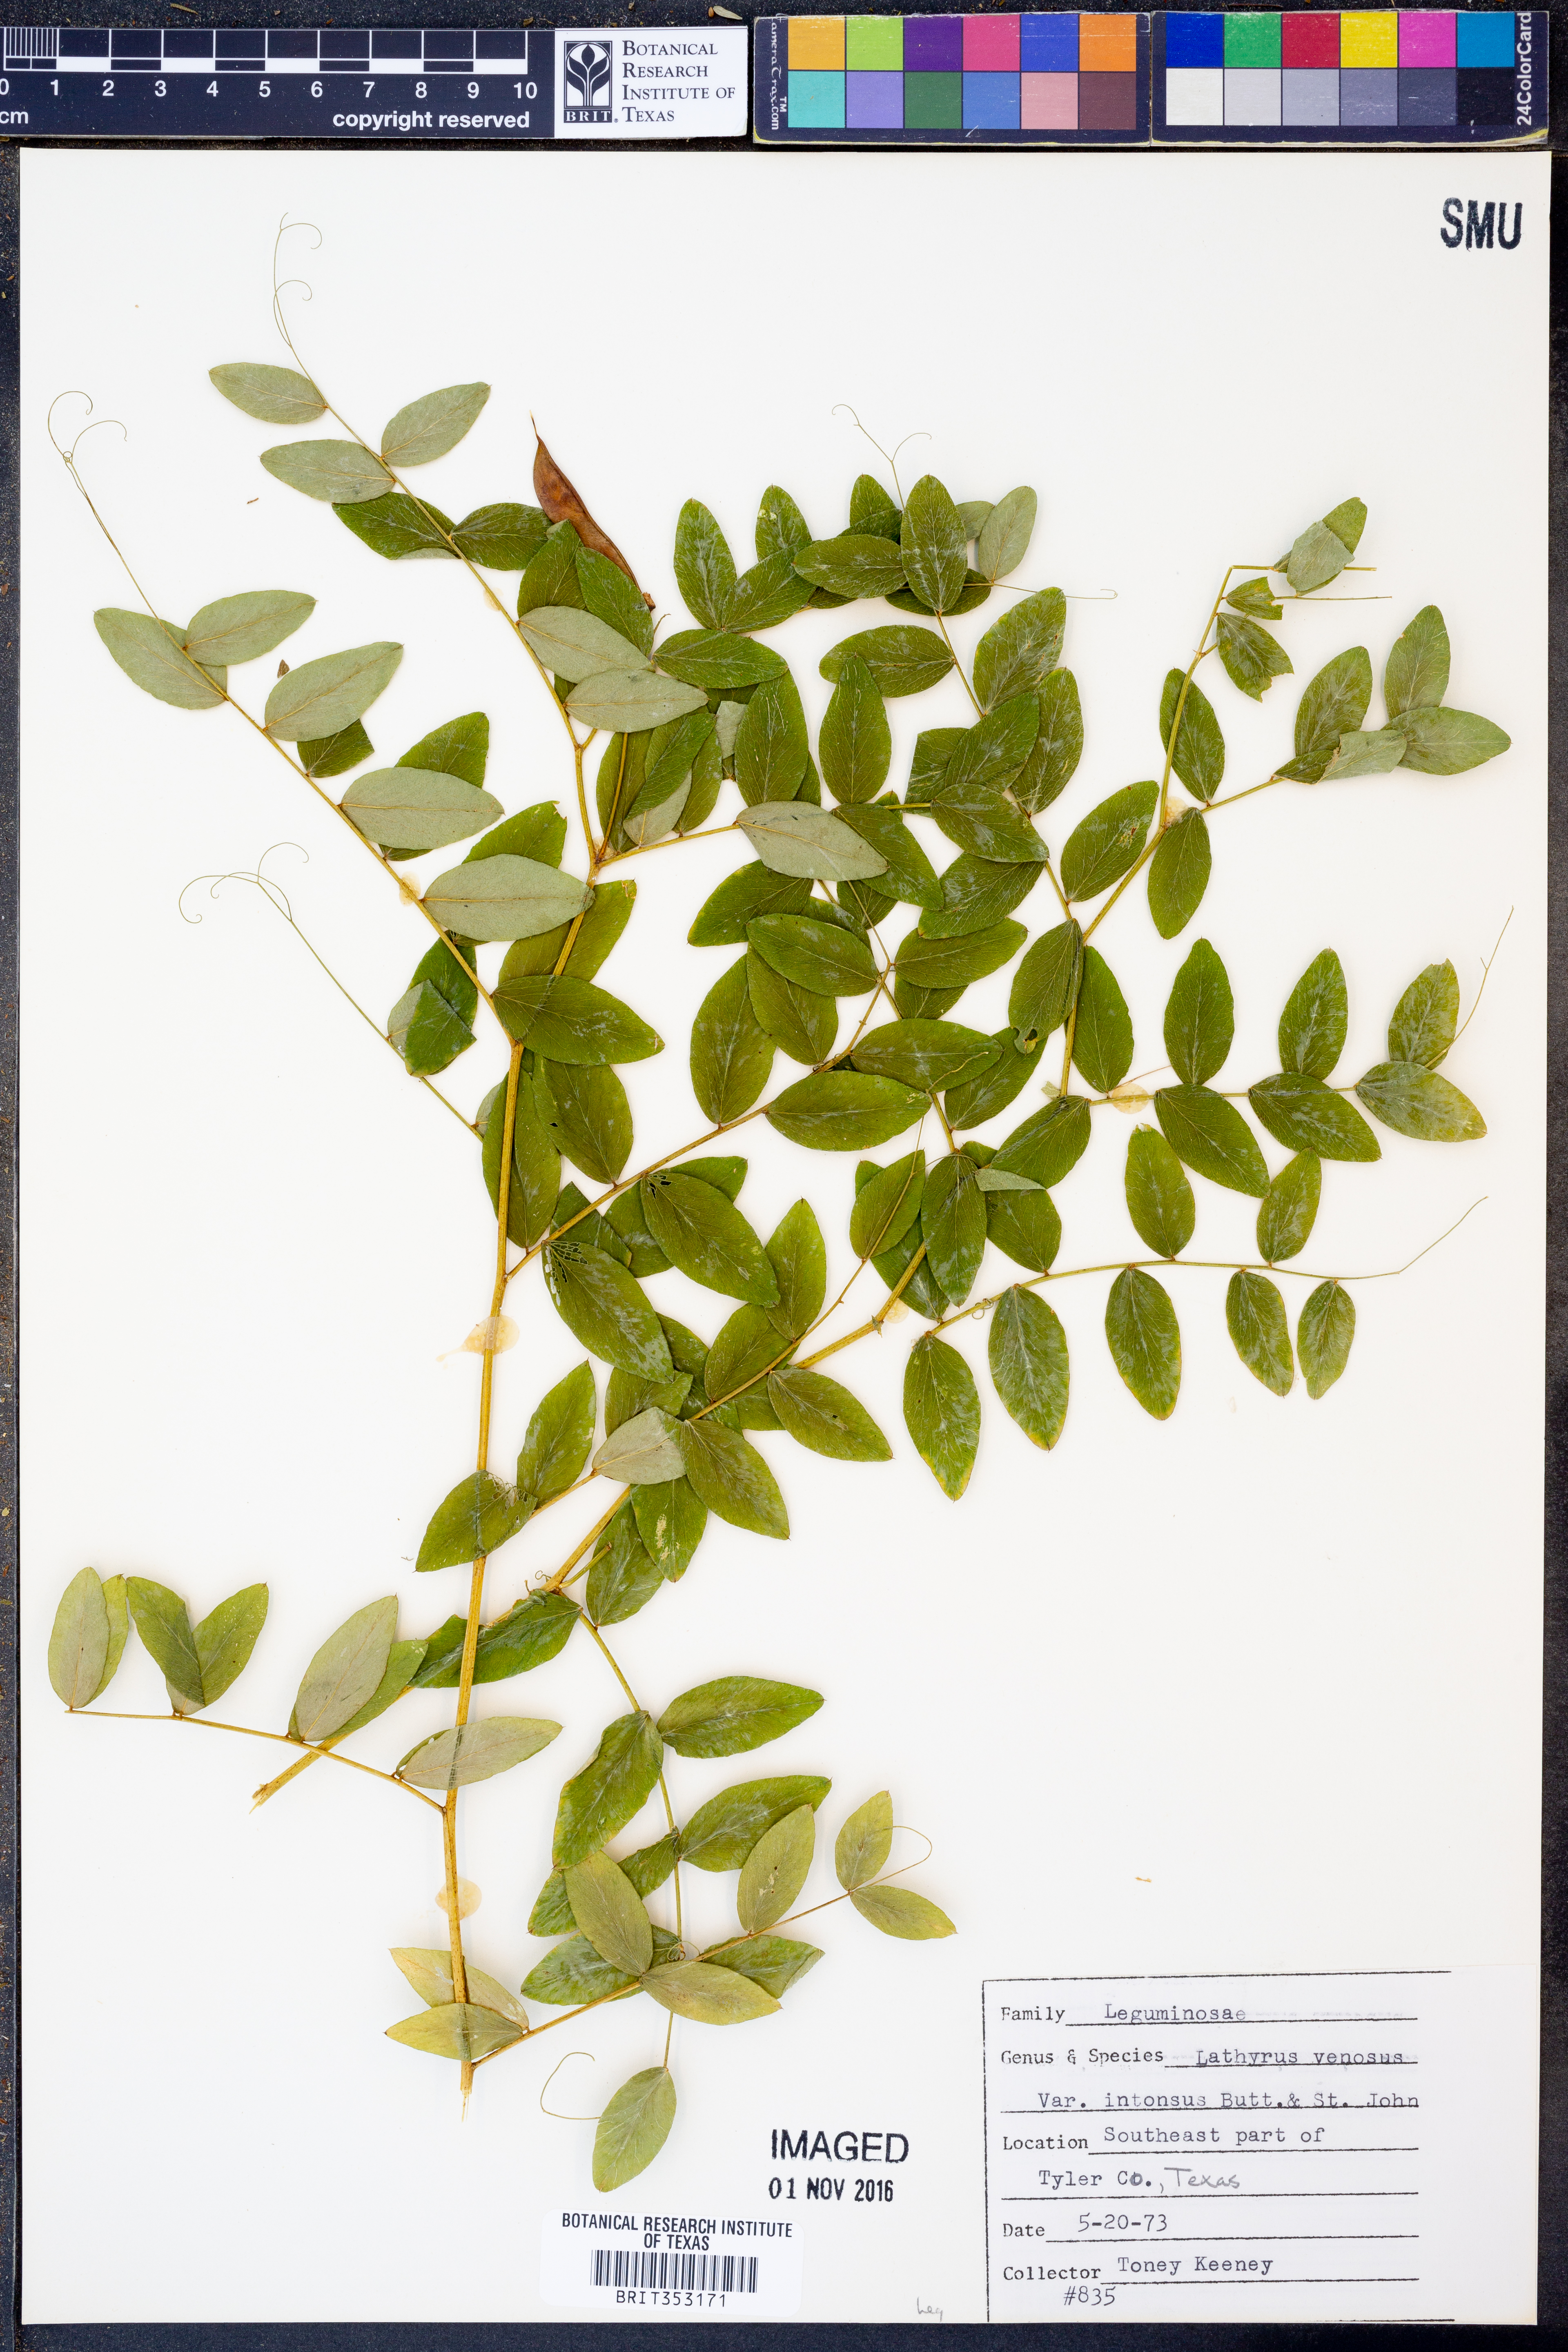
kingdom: Plantae
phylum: Tracheophyta
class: Magnoliopsida
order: Fabales
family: Fabaceae
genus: Lathyrus
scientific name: Lathyrus venosus
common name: Forest-pea
